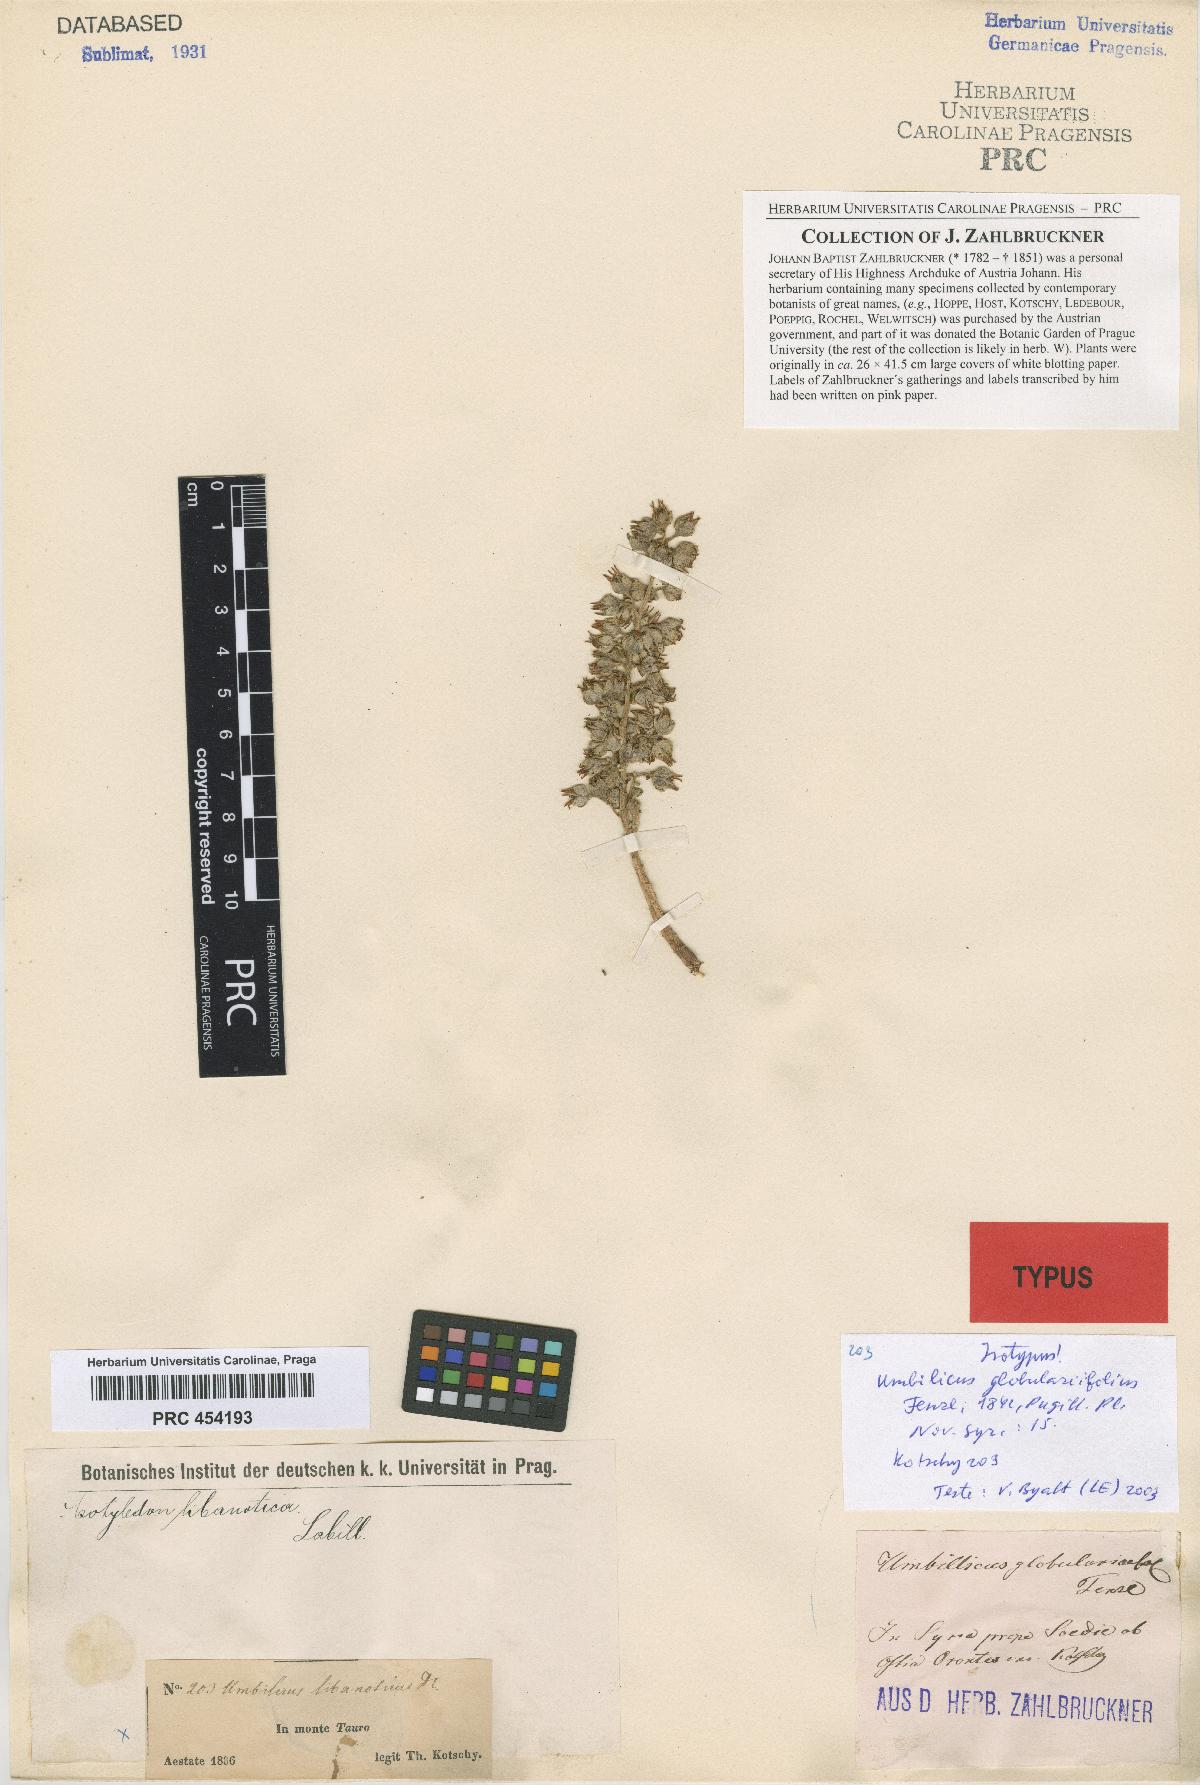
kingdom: Plantae
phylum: Tracheophyta
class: Magnoliopsida
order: Saxifragales
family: Crassulaceae
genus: Rosularia
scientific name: Rosularia globulariifolia
